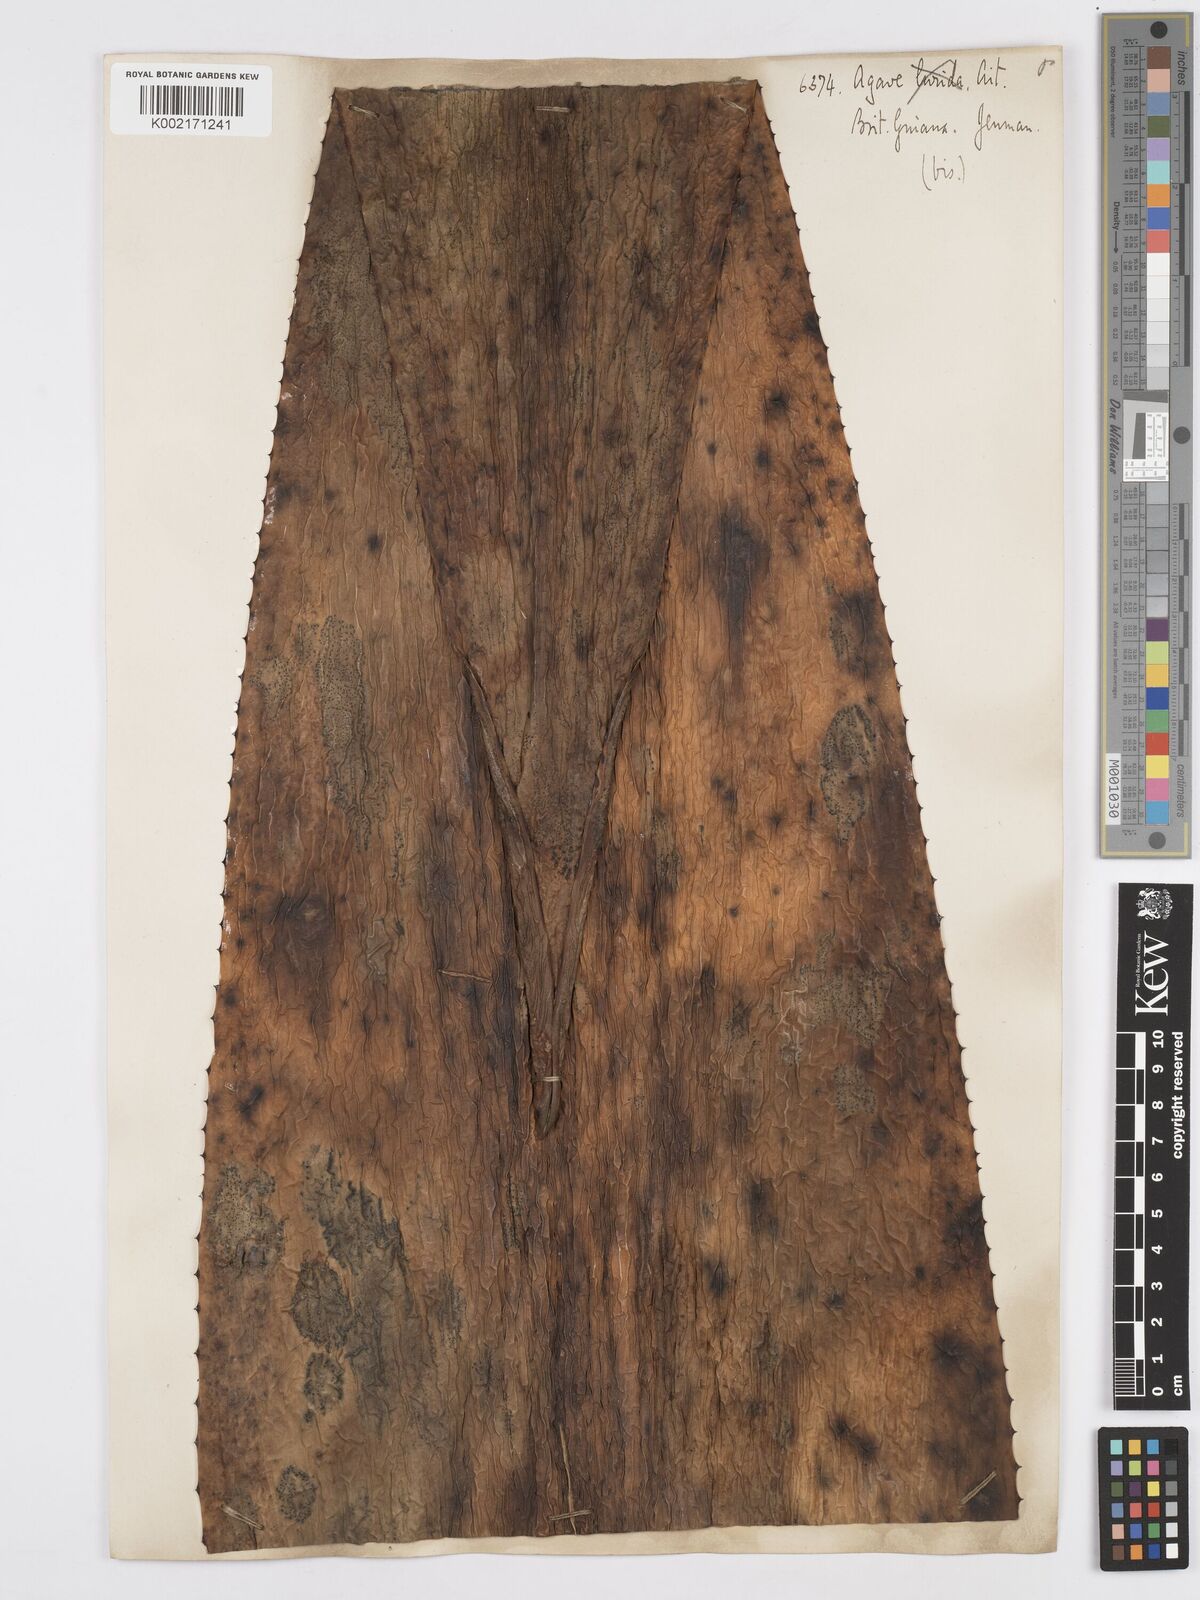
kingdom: Plantae
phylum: Tracheophyta
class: Liliopsida
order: Asparagales
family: Asparagaceae
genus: Agave
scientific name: Agave bahamana
